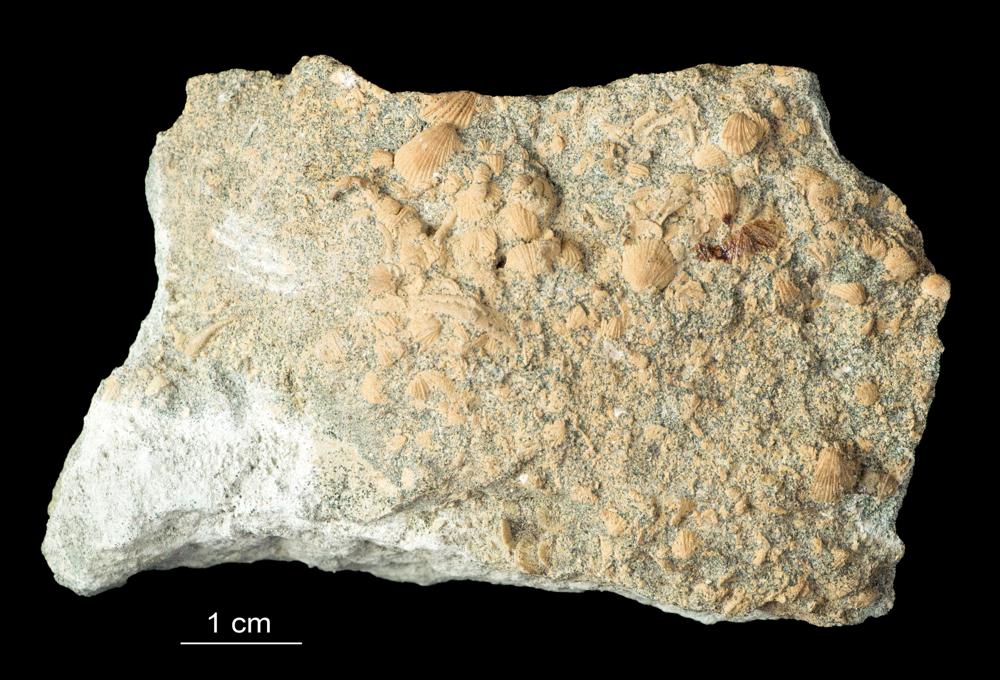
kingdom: Animalia
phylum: Brachiopoda
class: Rhynchonellata
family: Paurorthidae
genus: Paurorthis
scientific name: Paurorthis Productus minimus
